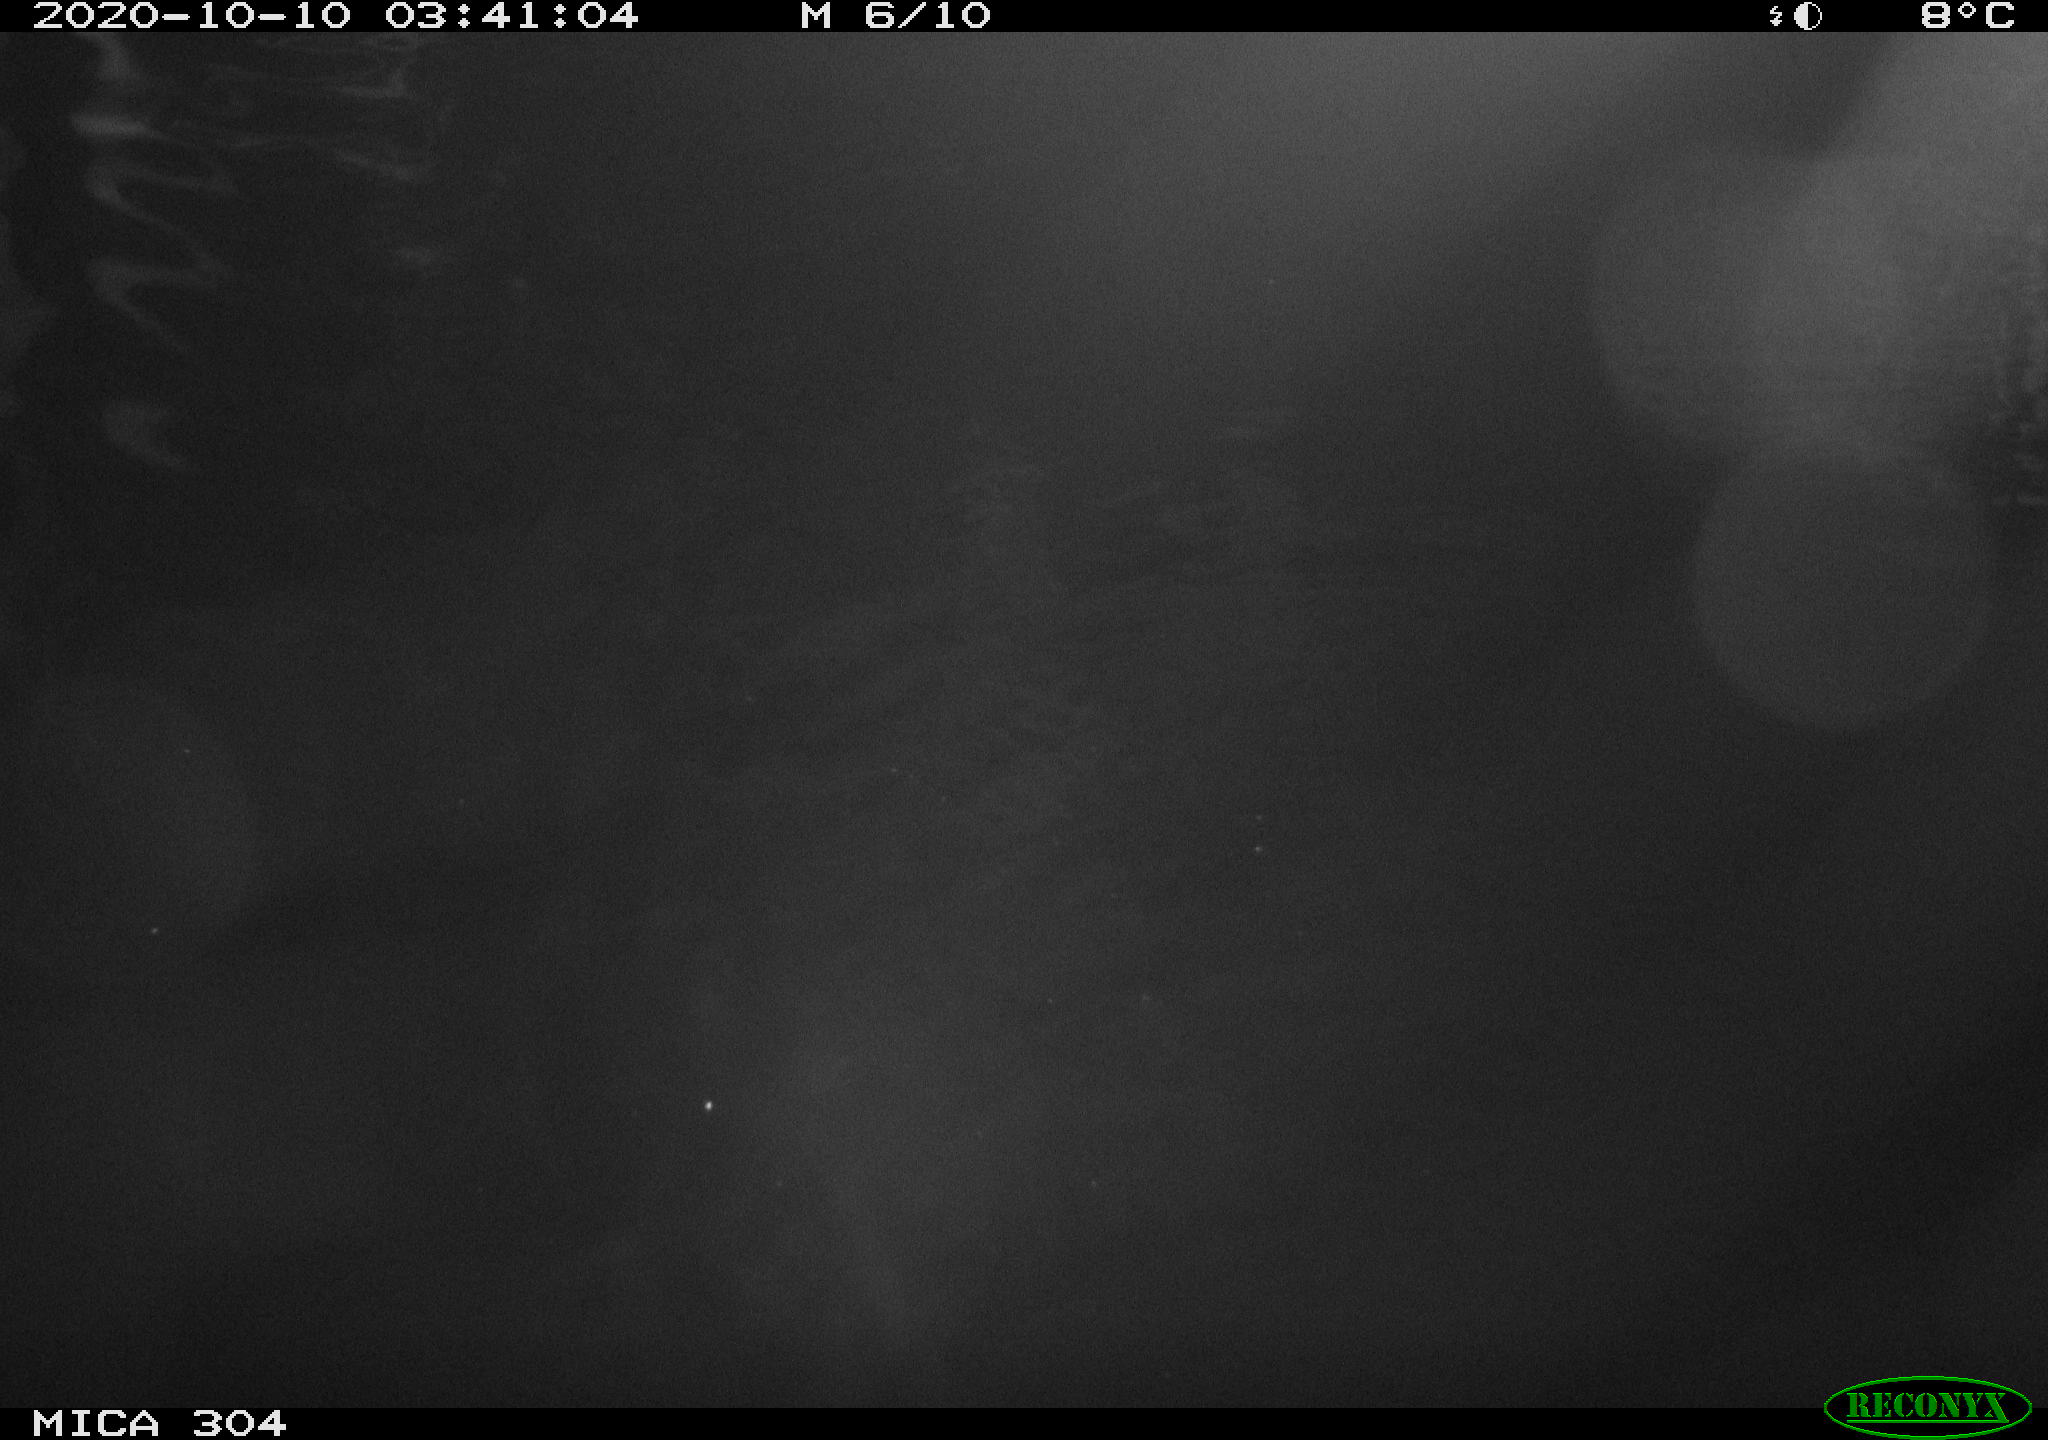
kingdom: Animalia
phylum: Chordata
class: Mammalia
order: Rodentia
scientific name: Rodentia
